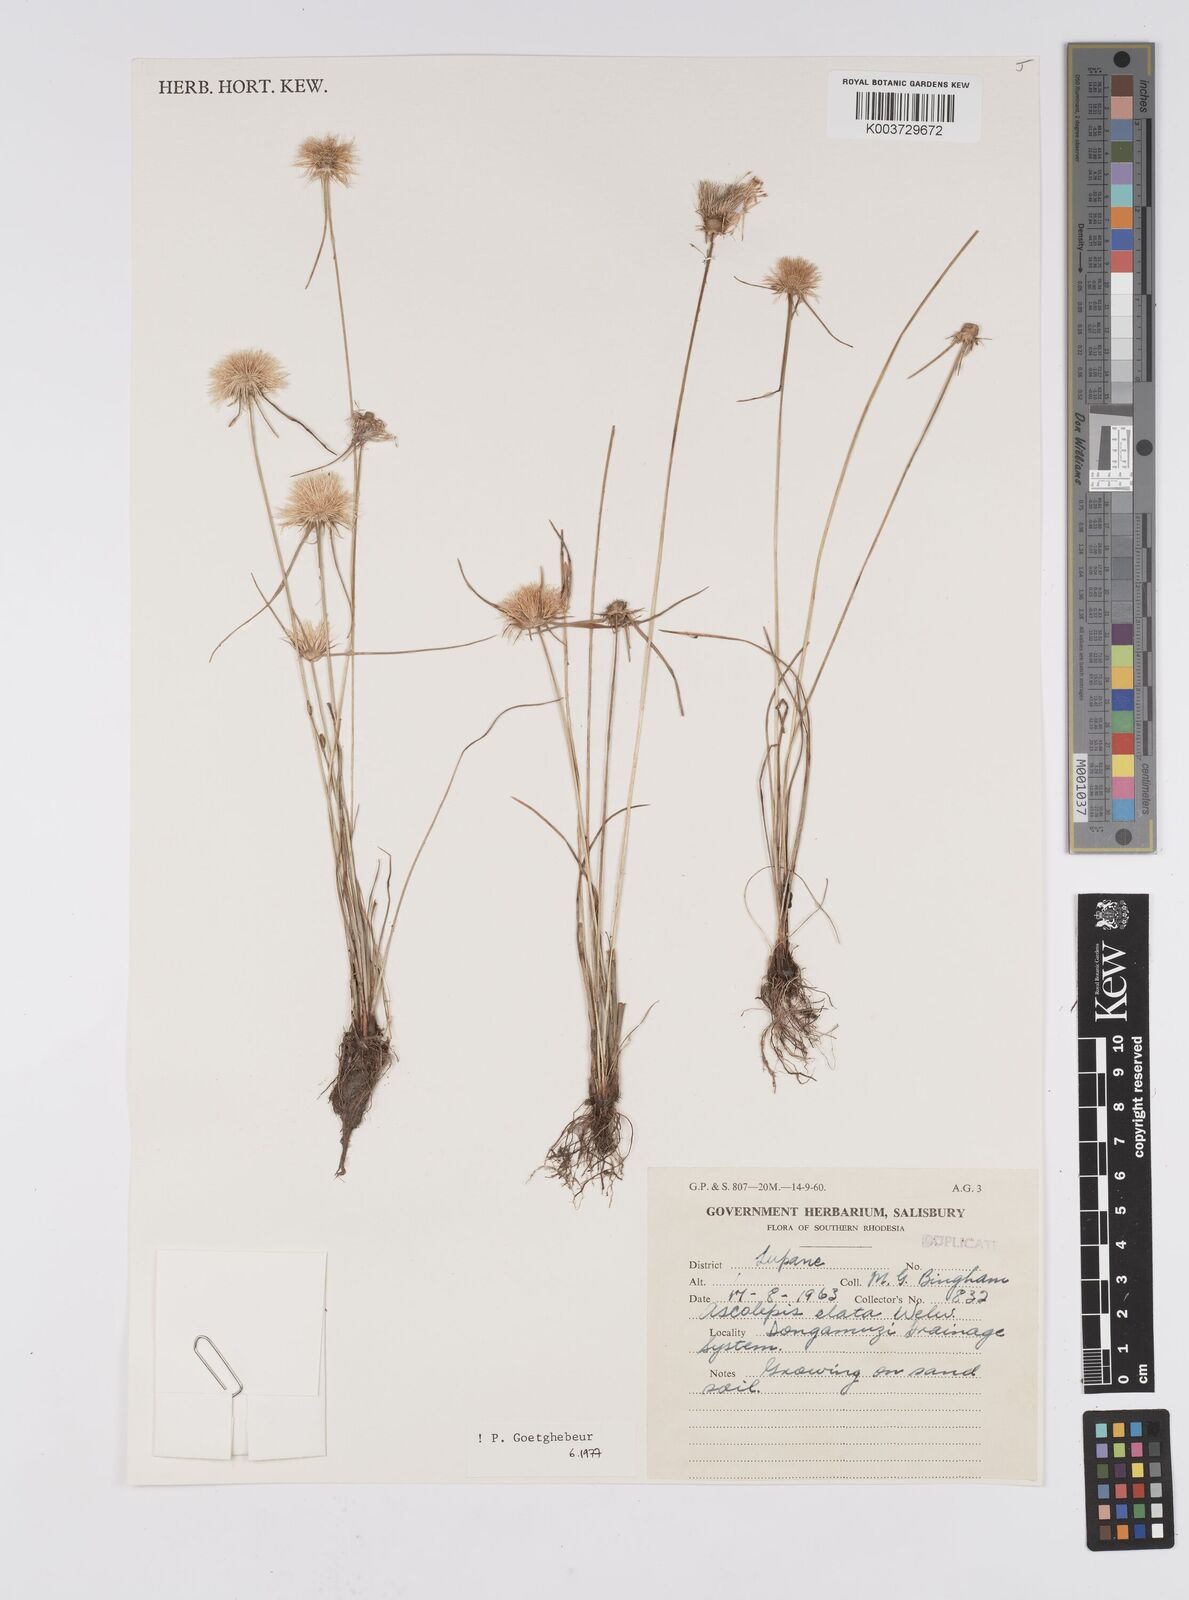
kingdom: Plantae
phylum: Tracheophyta
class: Liliopsida
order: Poales
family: Cyperaceae
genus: Cyperus
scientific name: Cyperus
